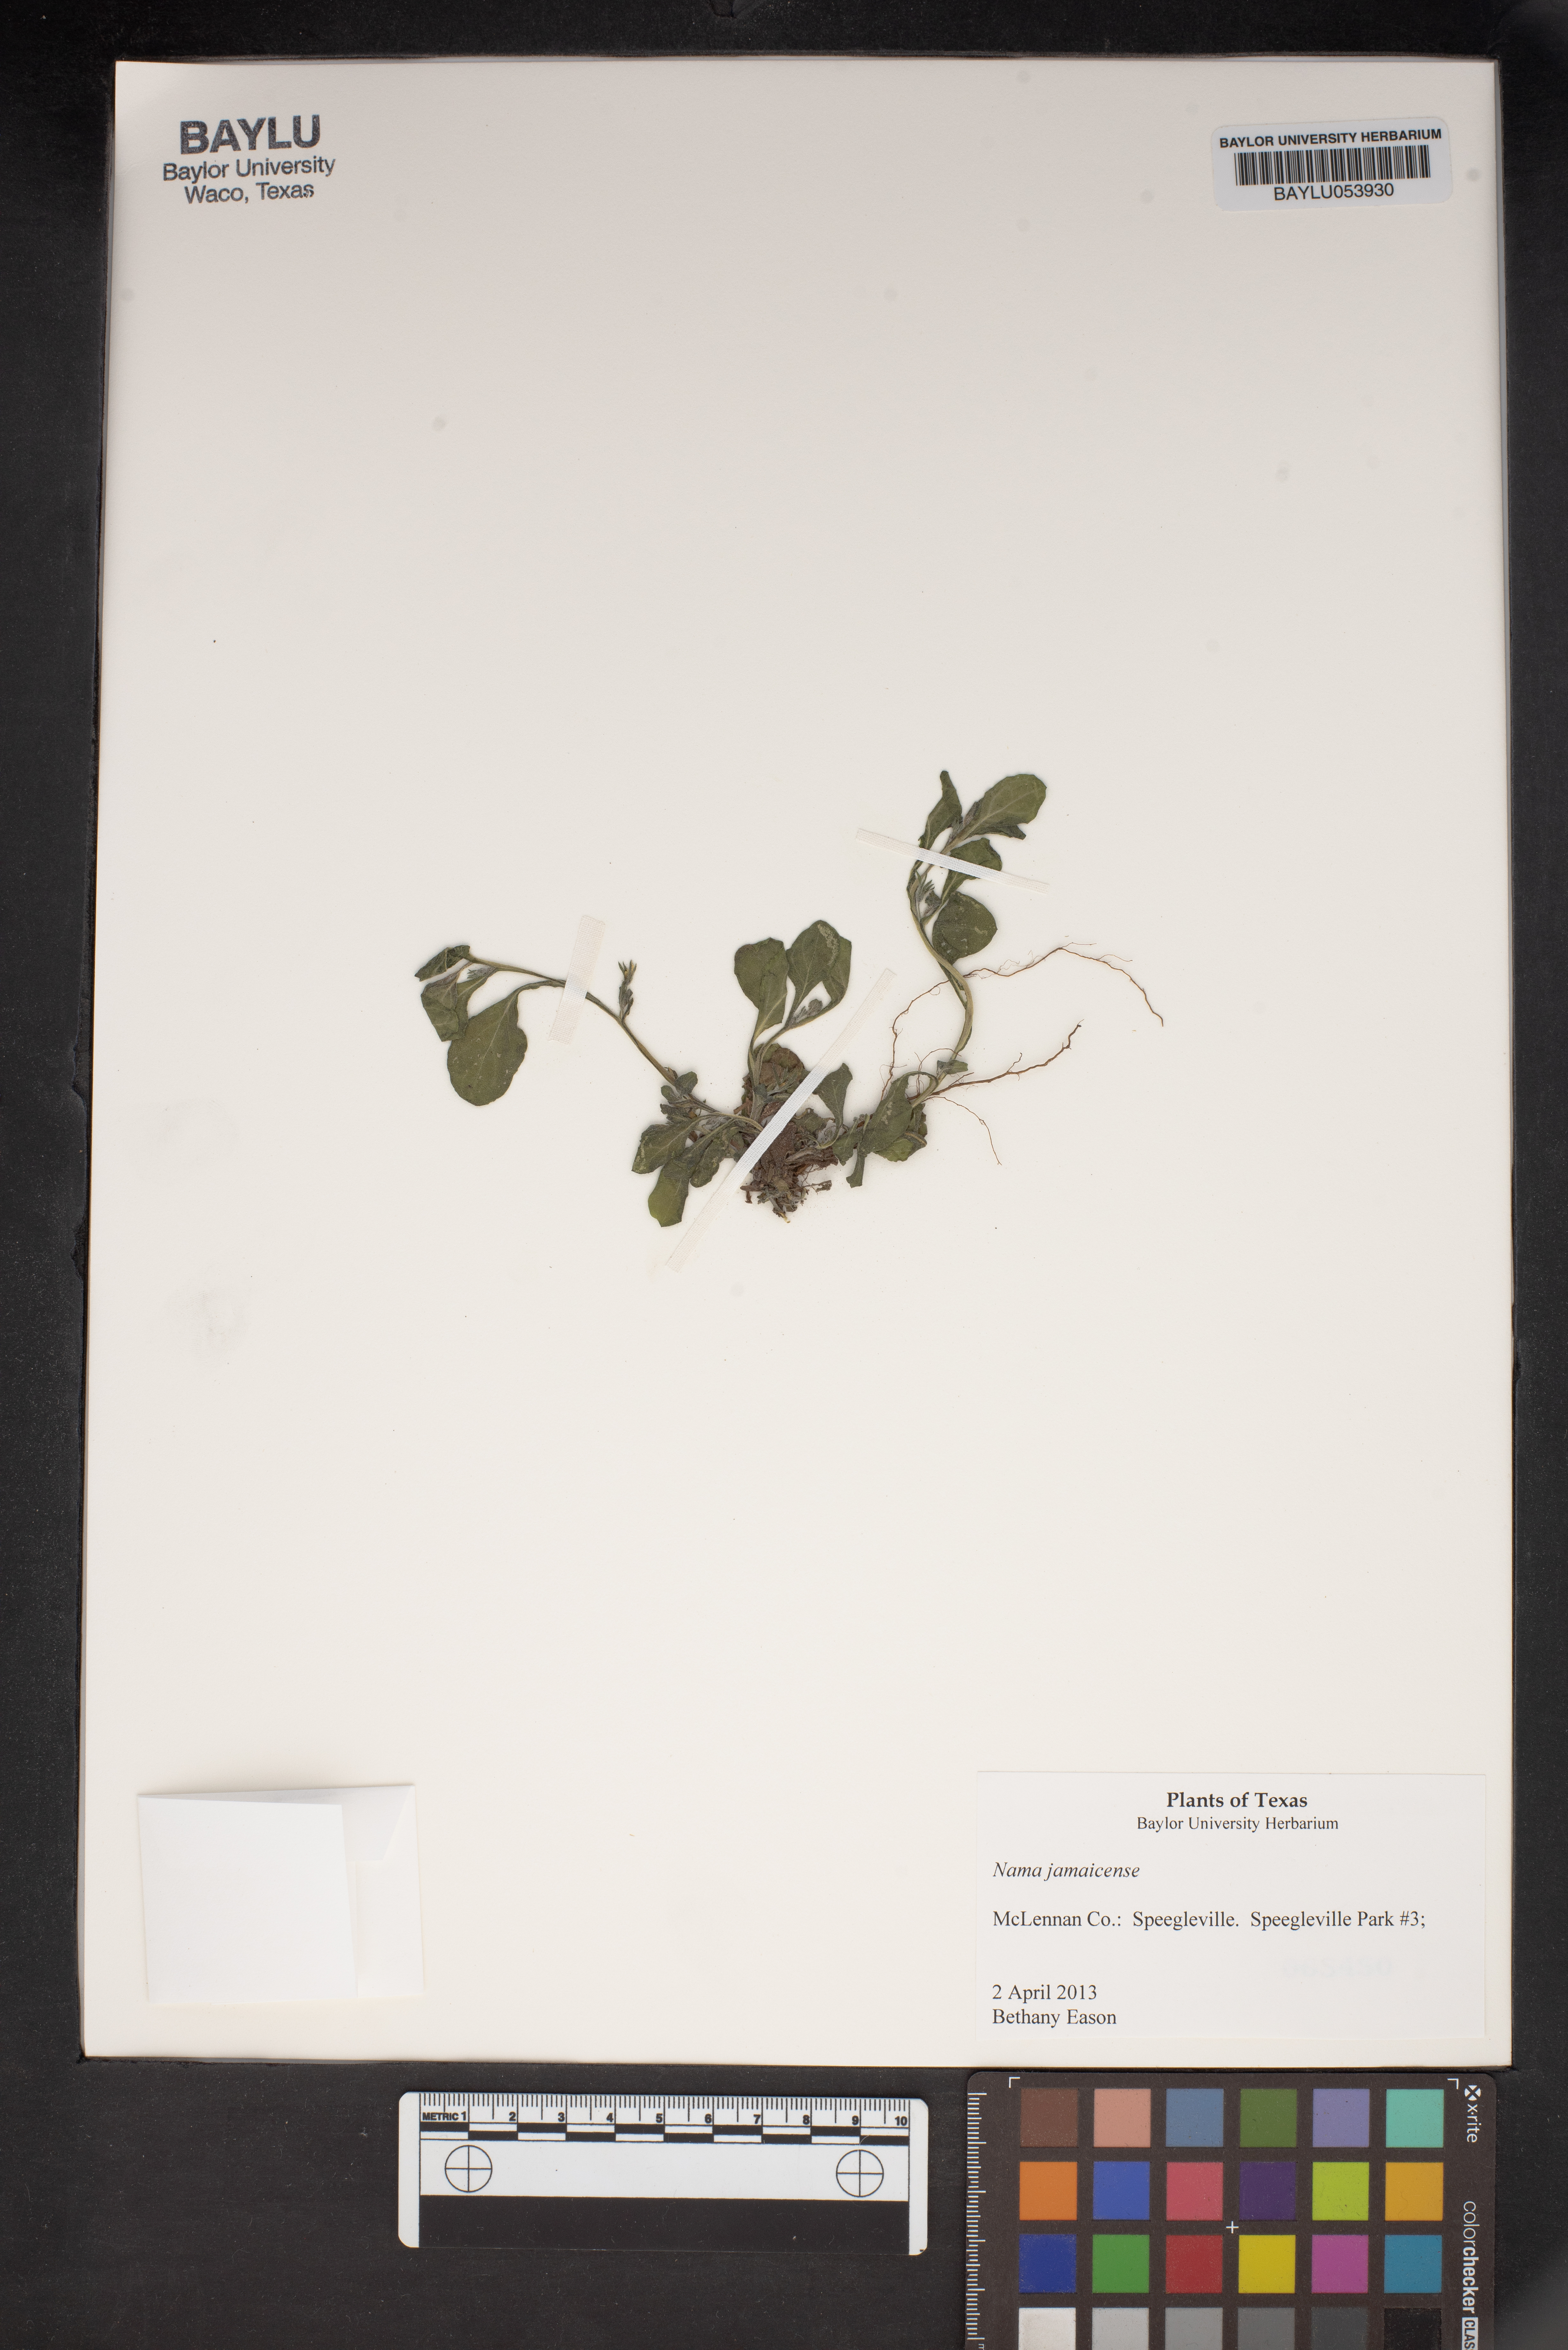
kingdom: Plantae
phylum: Tracheophyta
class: Magnoliopsida
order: Boraginales
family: Namaceae
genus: Nama
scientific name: Nama jamaicense
